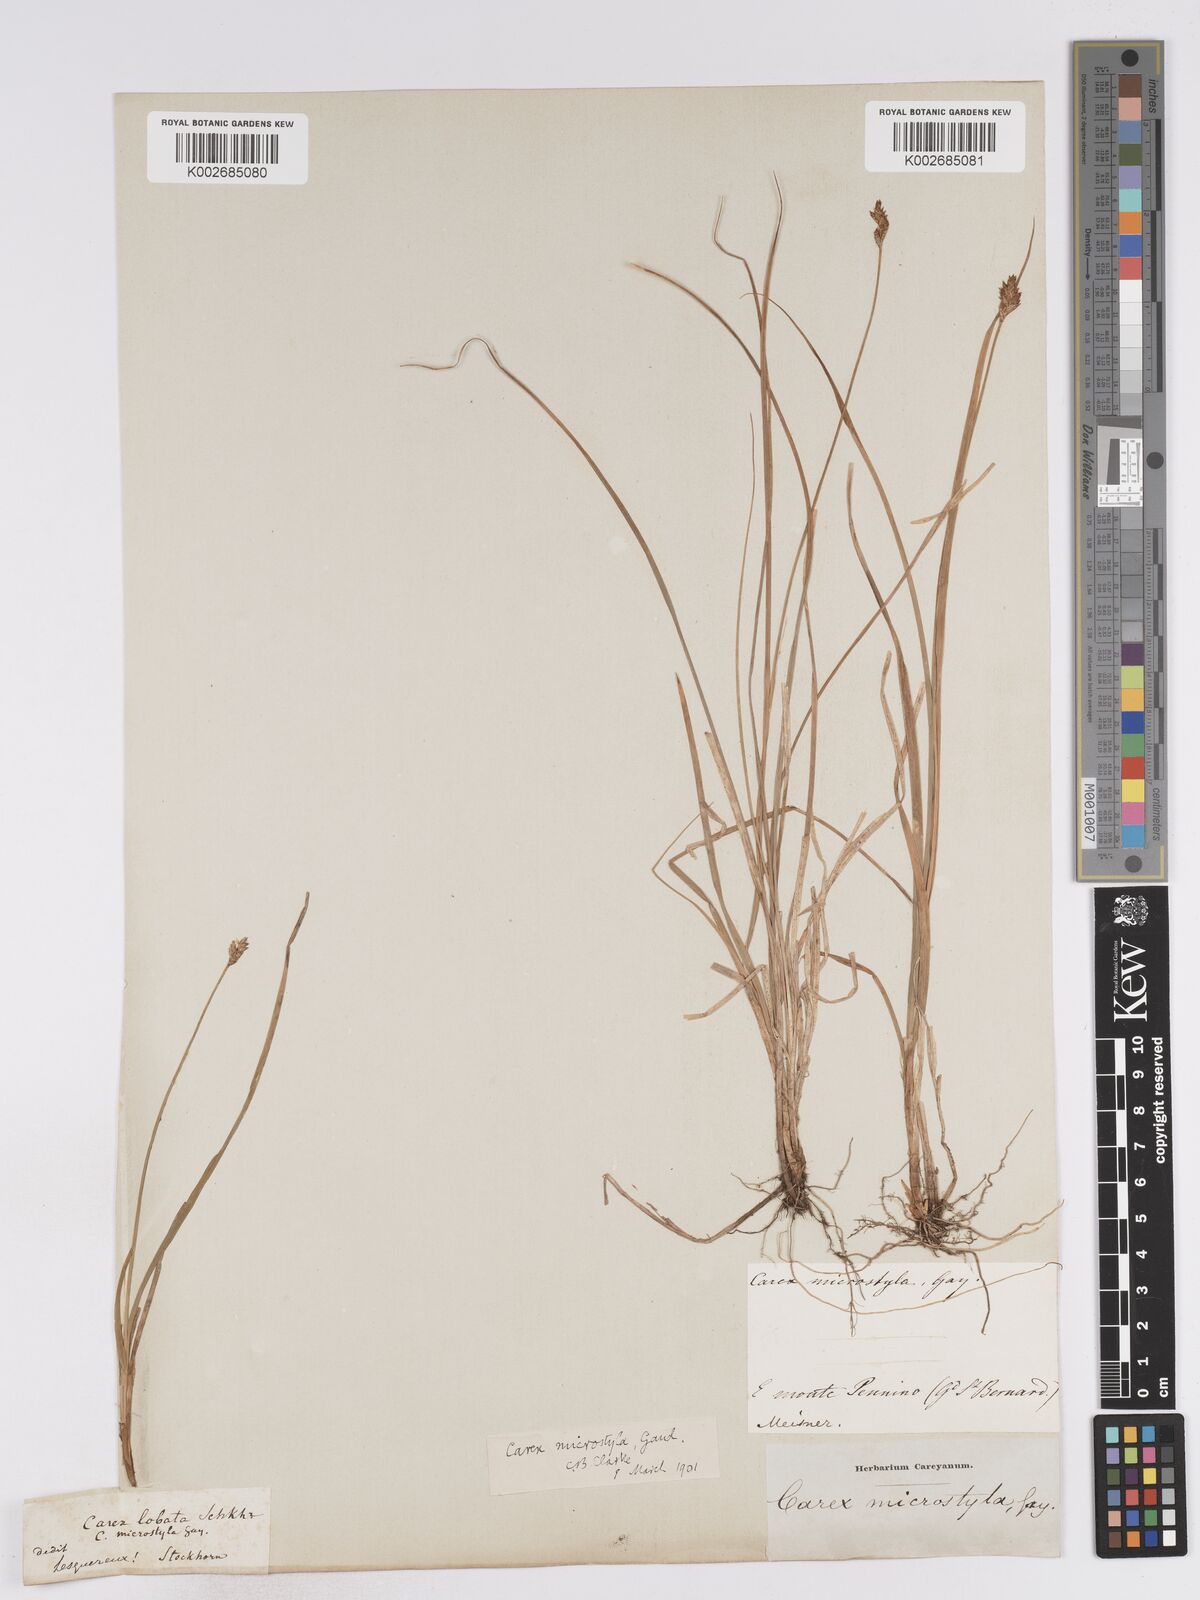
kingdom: Plantae
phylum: Tracheophyta
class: Liliopsida
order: Poales
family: Cyperaceae
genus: Carex
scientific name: Carex brunnescens
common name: Brown sedge
